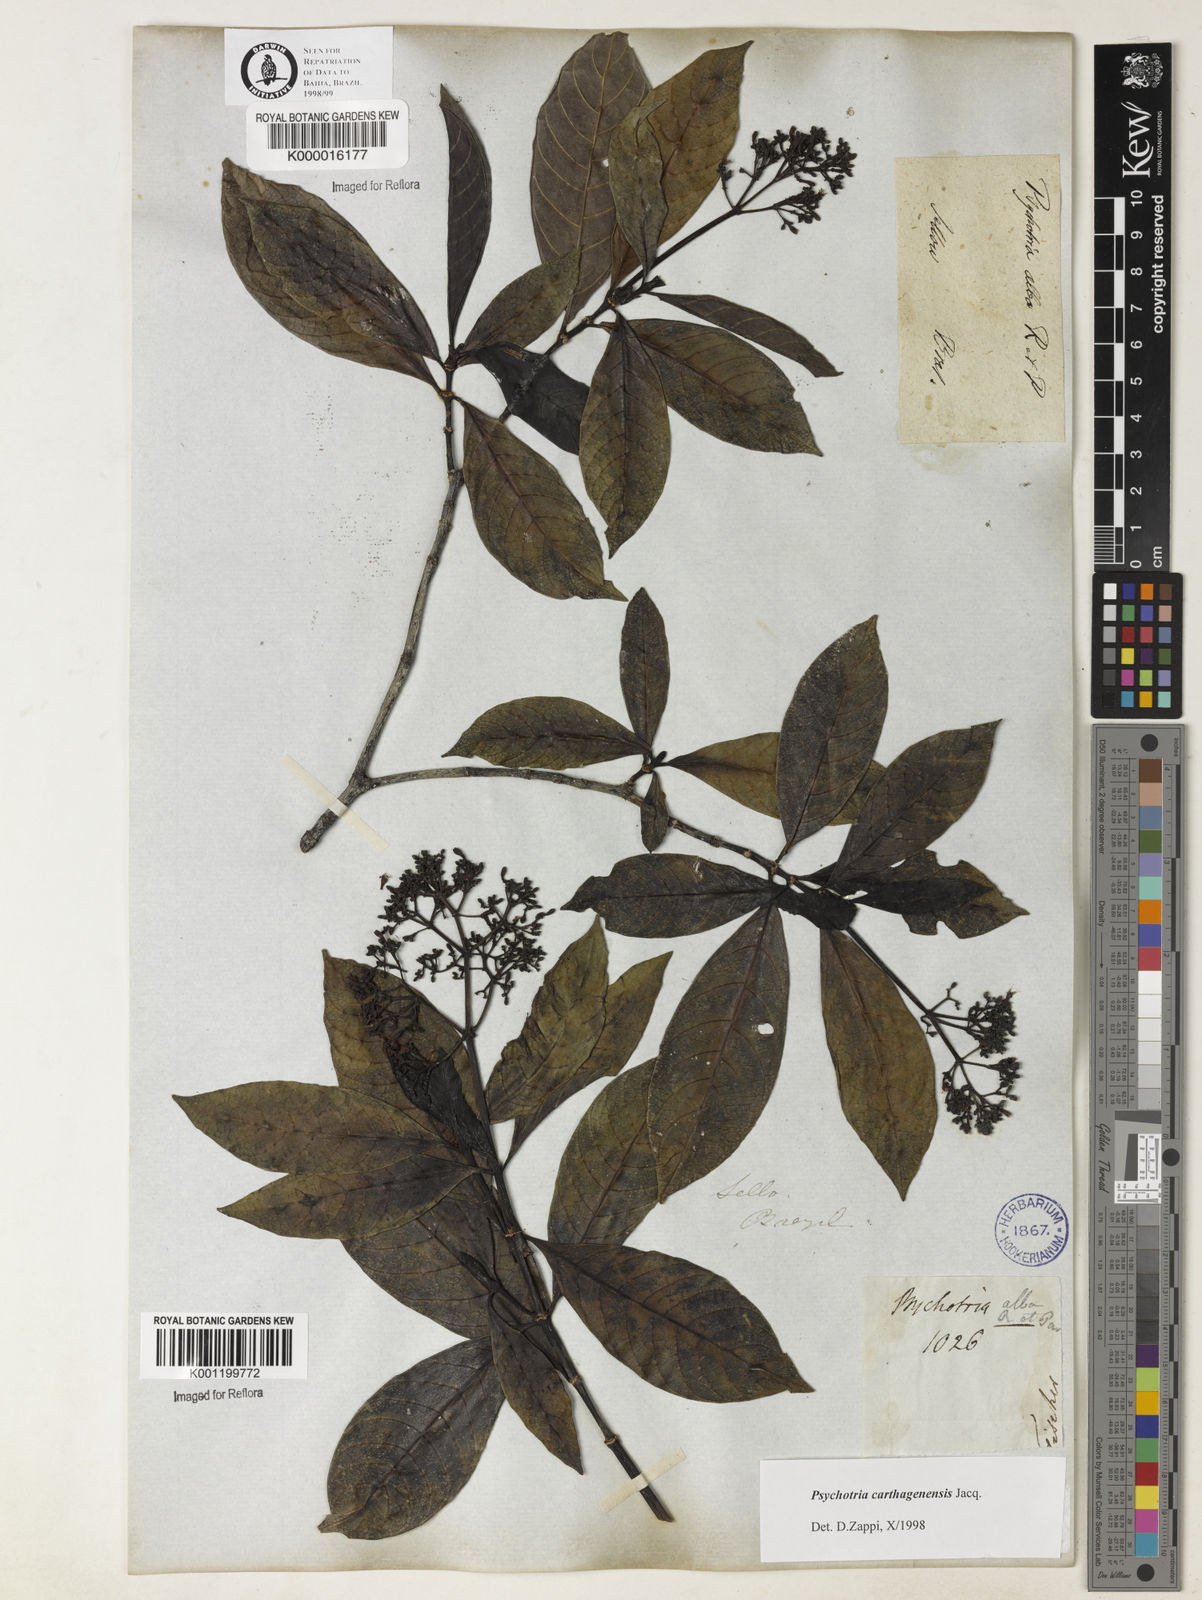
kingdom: Plantae
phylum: Tracheophyta
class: Magnoliopsida
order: Gentianales
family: Rubiaceae
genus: Psychotria
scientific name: Psychotria carthagenensis
